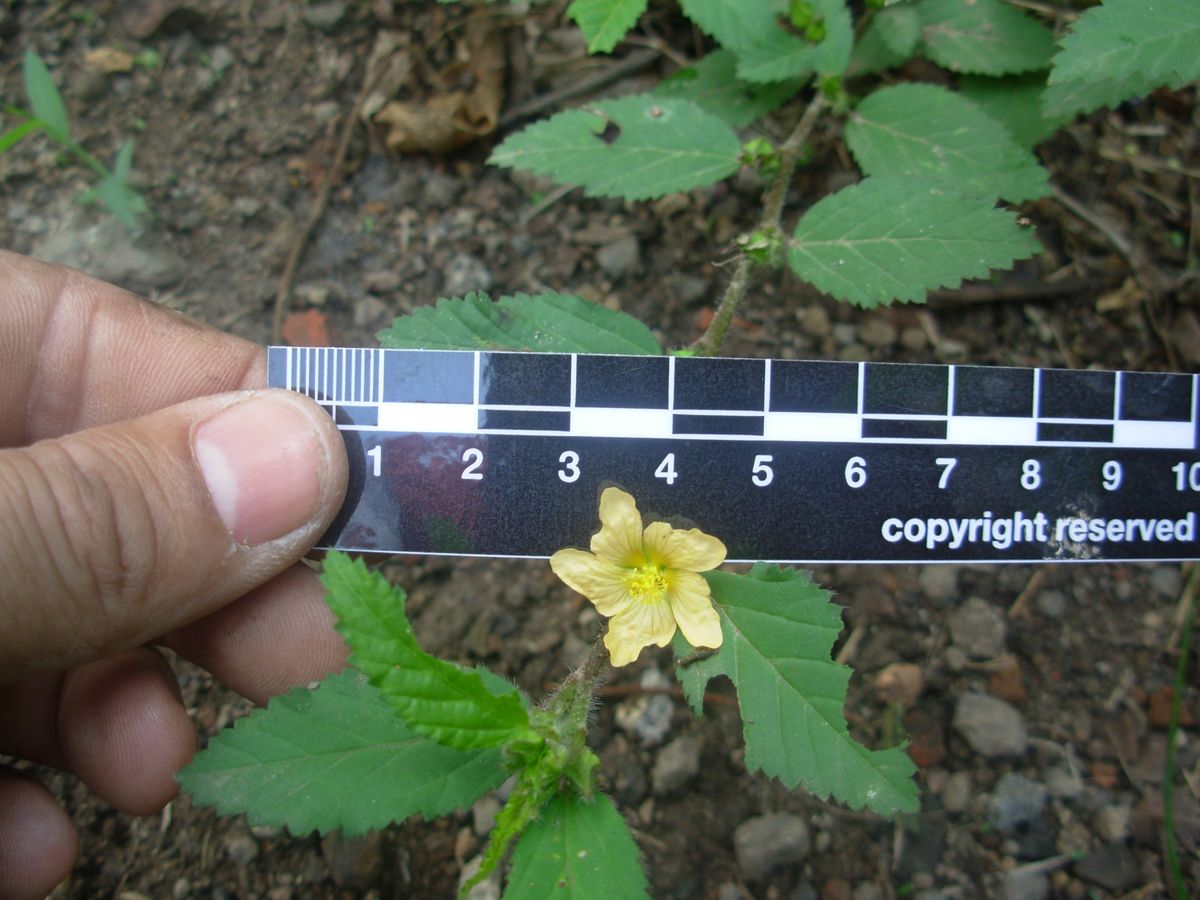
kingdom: Plantae
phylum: Tracheophyta
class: Magnoliopsida
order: Malvales
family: Malvaceae
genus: Sida
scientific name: Sida
